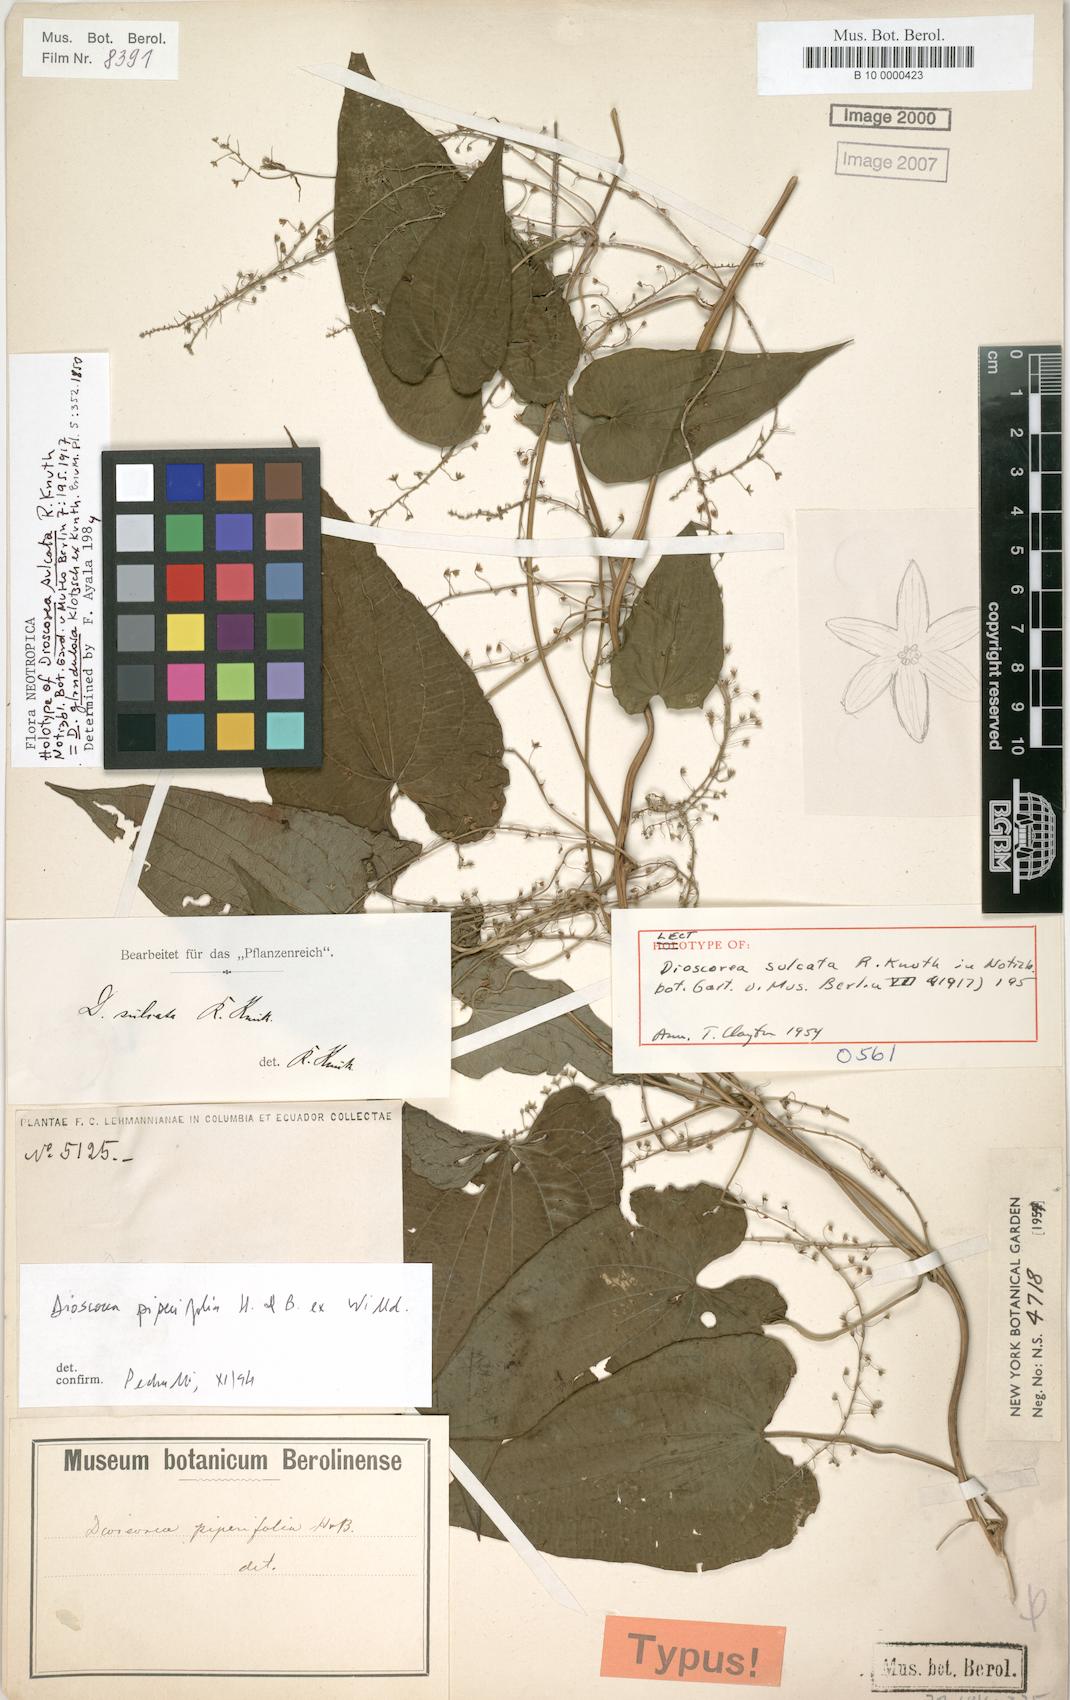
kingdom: Plantae
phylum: Tracheophyta
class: Liliopsida
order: Dioscoreales
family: Dioscoreaceae
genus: Dioscorea
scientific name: Dioscorea piperifolia
